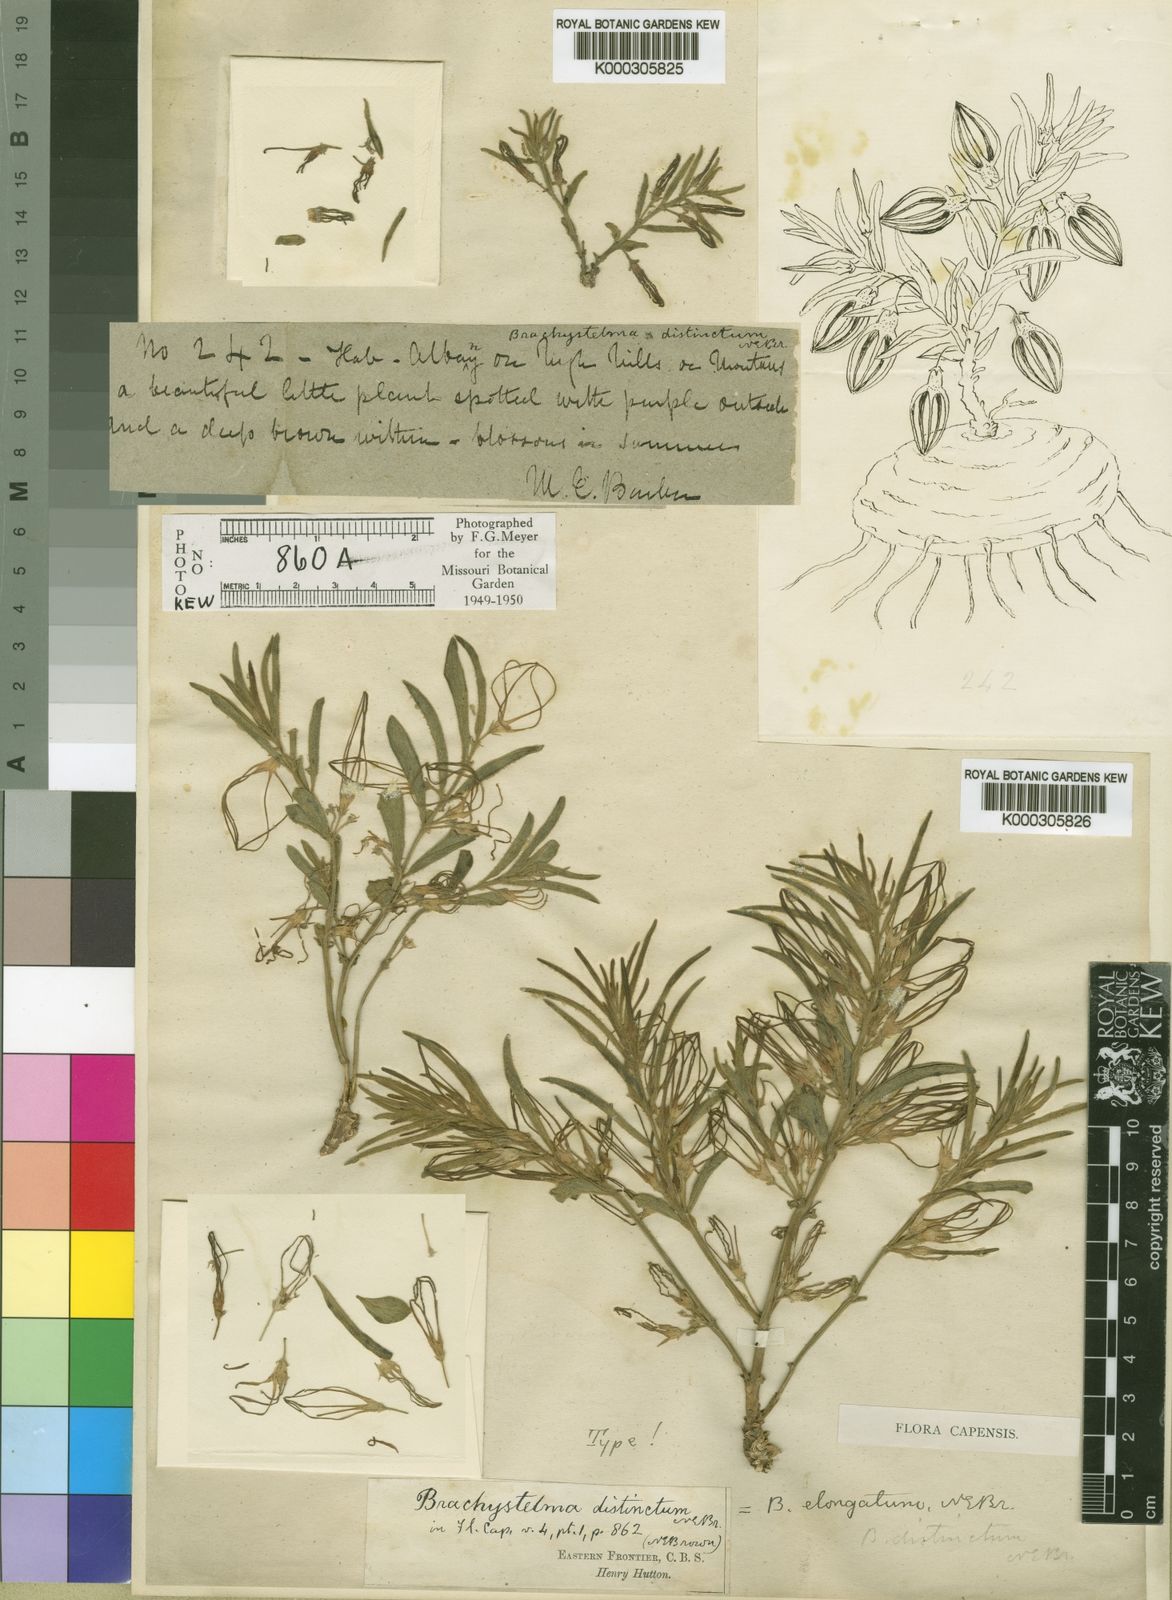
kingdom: Plantae
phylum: Tracheophyta
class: Magnoliopsida
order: Gentianales
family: Apocynaceae
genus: Ceropegia
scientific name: Ceropegia elongata
